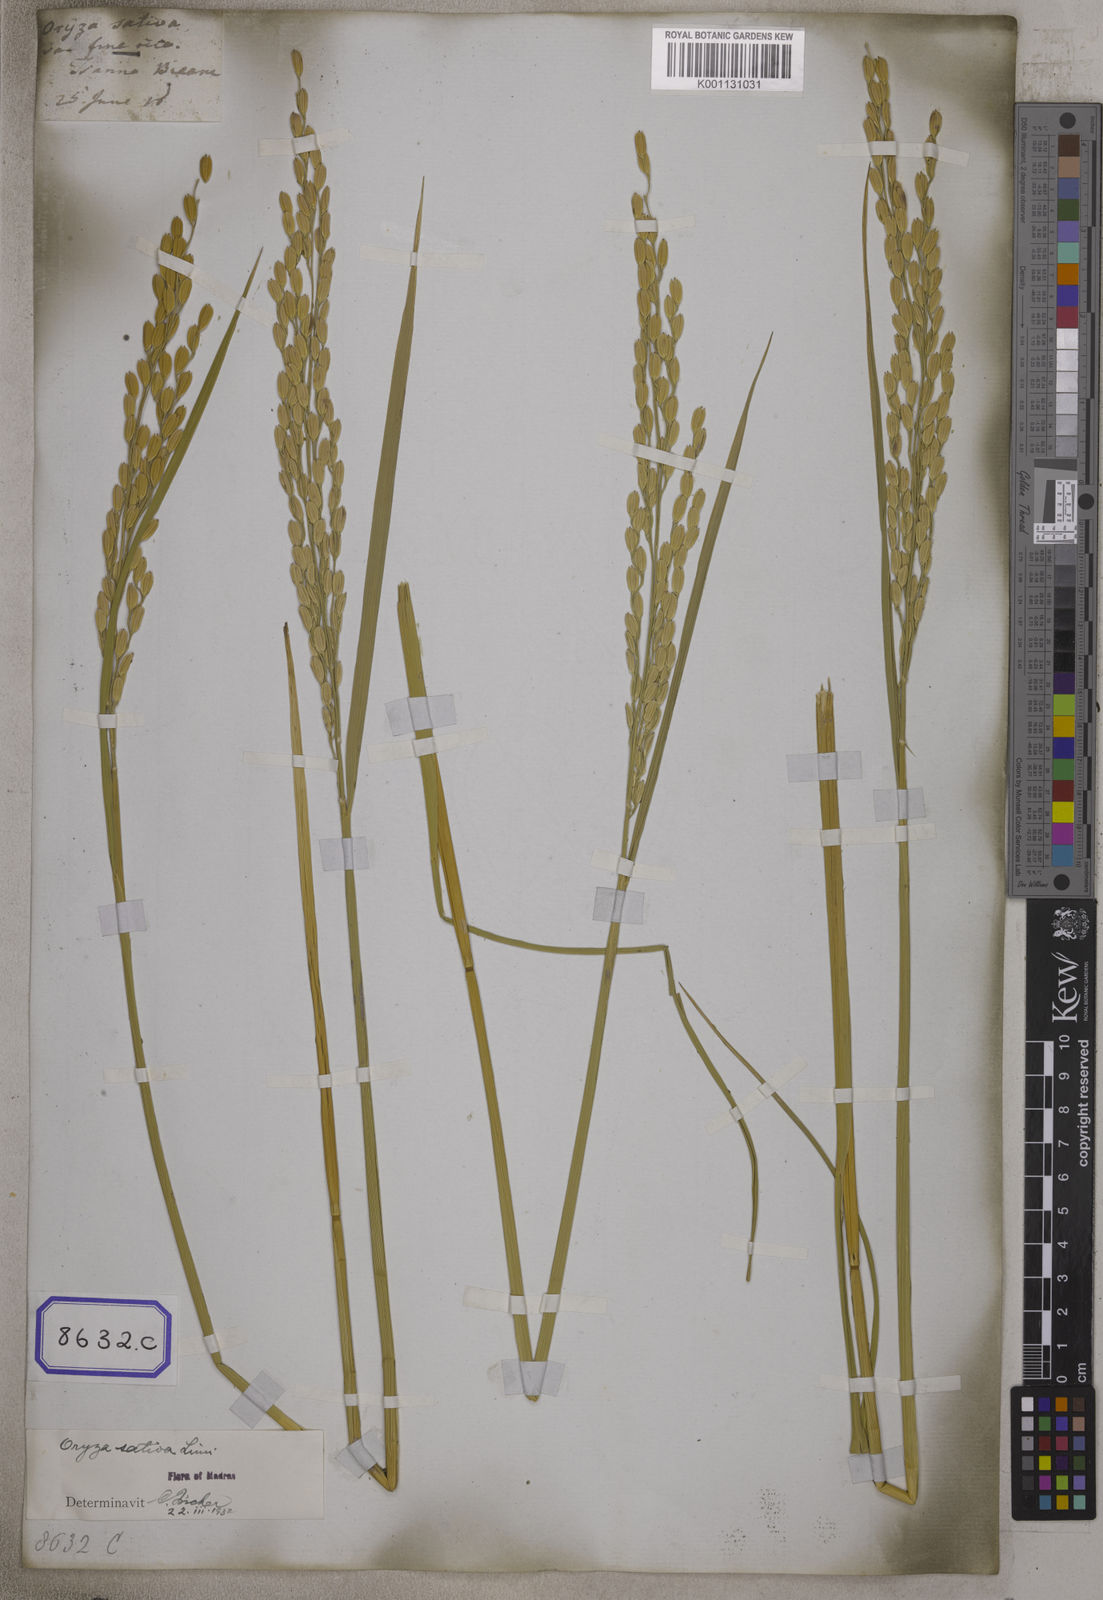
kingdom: Plantae
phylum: Tracheophyta
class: Liliopsida
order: Poales
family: Poaceae
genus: Oryza
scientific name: Oryza sativa
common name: Rice
